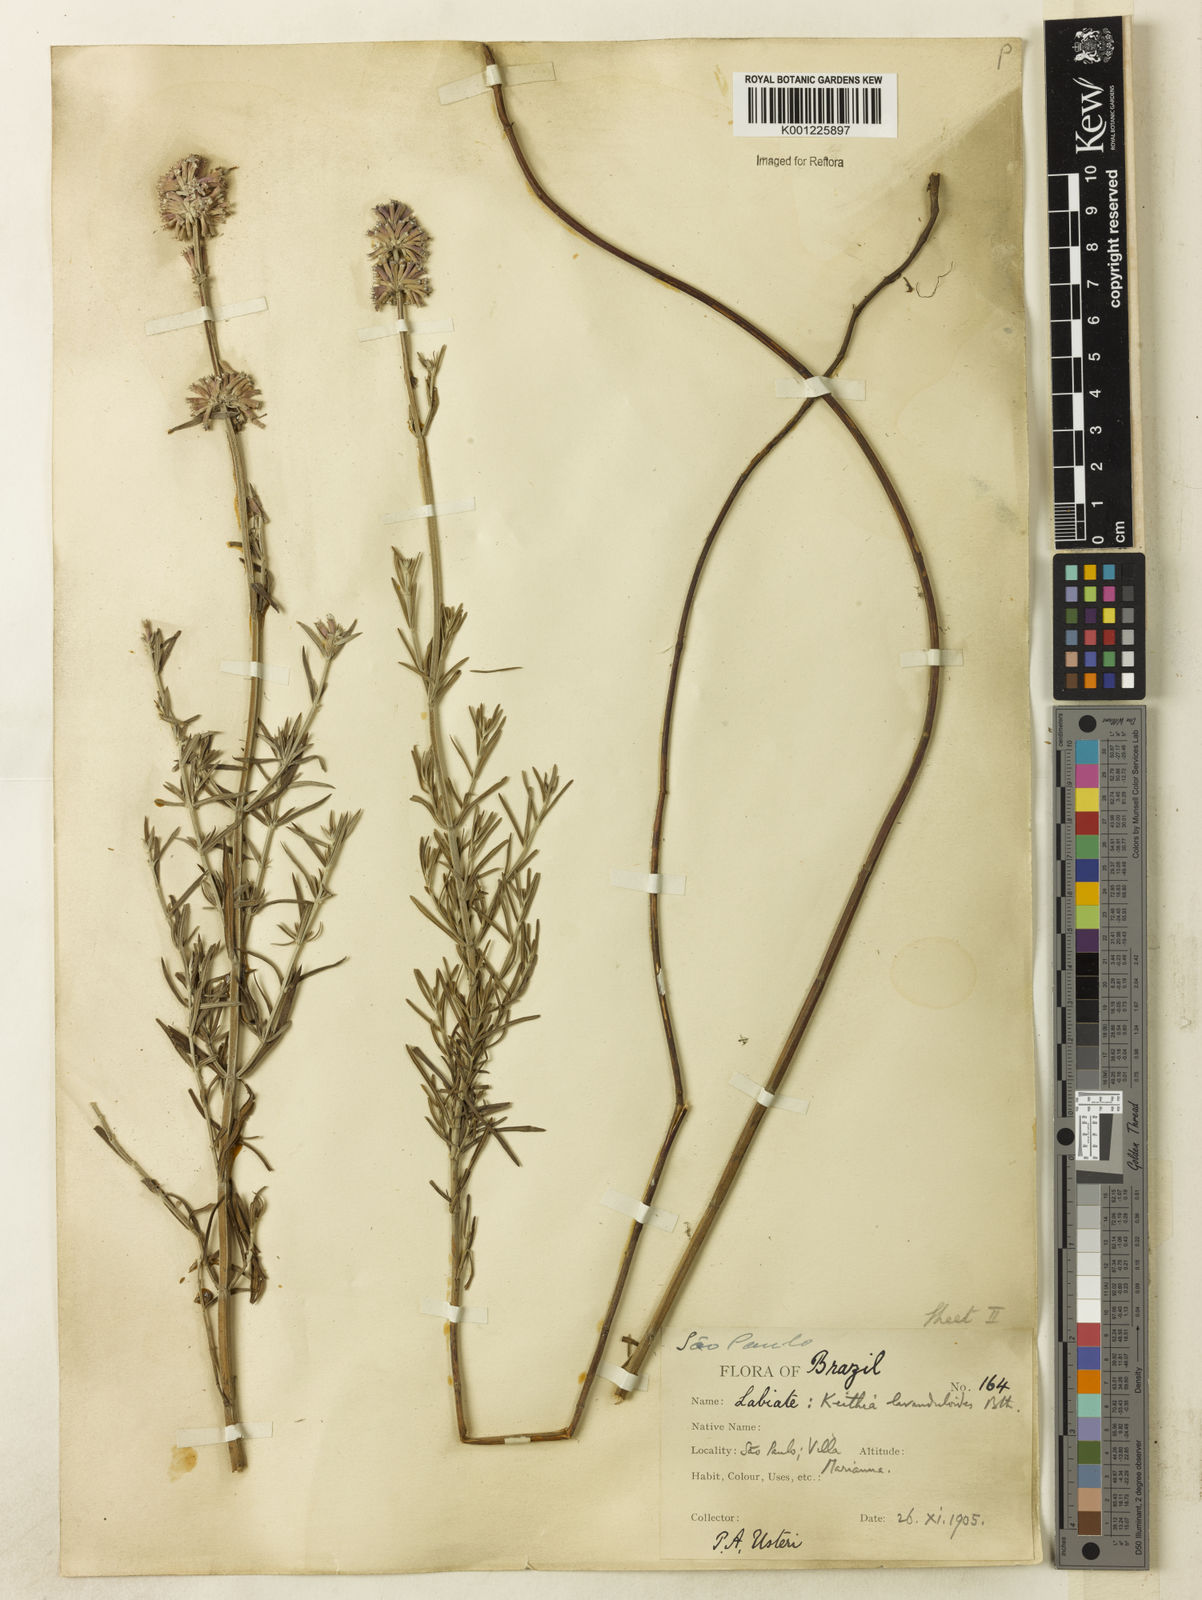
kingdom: Plantae
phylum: Tracheophyta
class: Magnoliopsida
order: Lamiales
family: Lamiaceae
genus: Rhabdocaulon
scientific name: Rhabdocaulon lavanduloides
